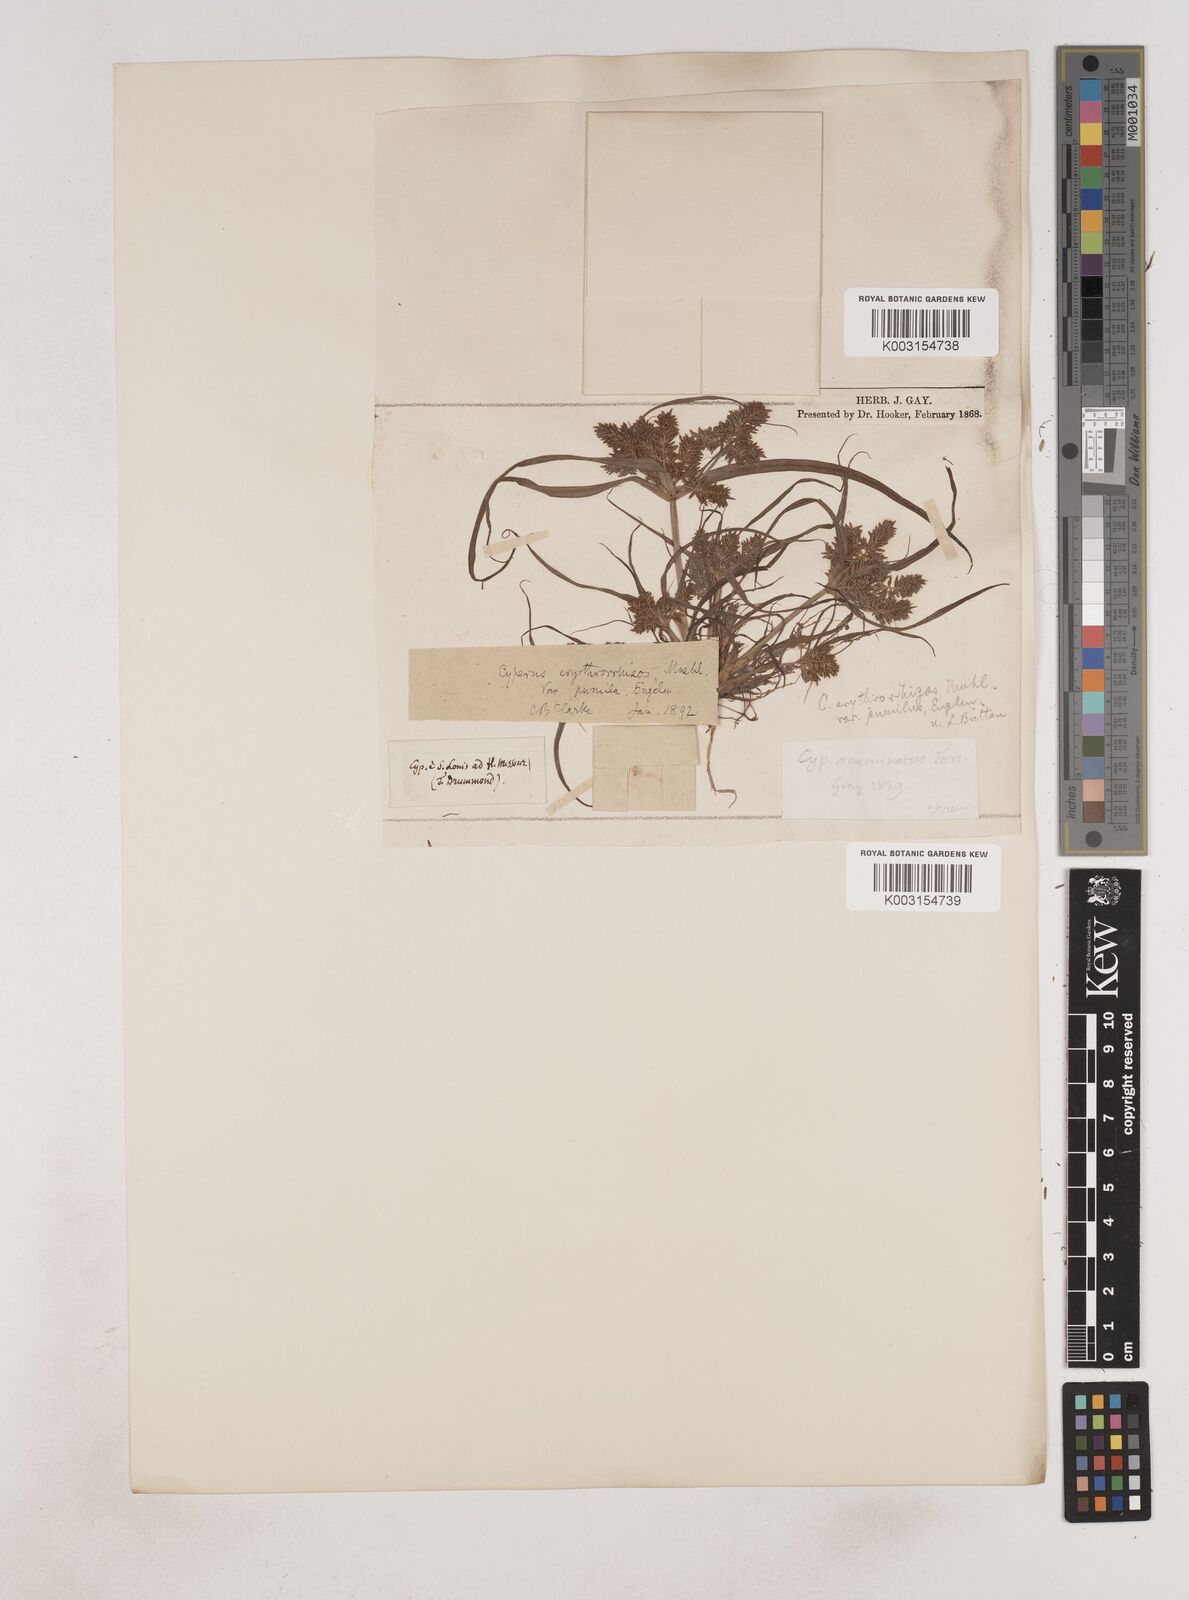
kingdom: Plantae
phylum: Tracheophyta
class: Liliopsida
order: Poales
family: Cyperaceae
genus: Cyperus
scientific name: Cyperus erythrorhizos
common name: Red-root flat sedge
